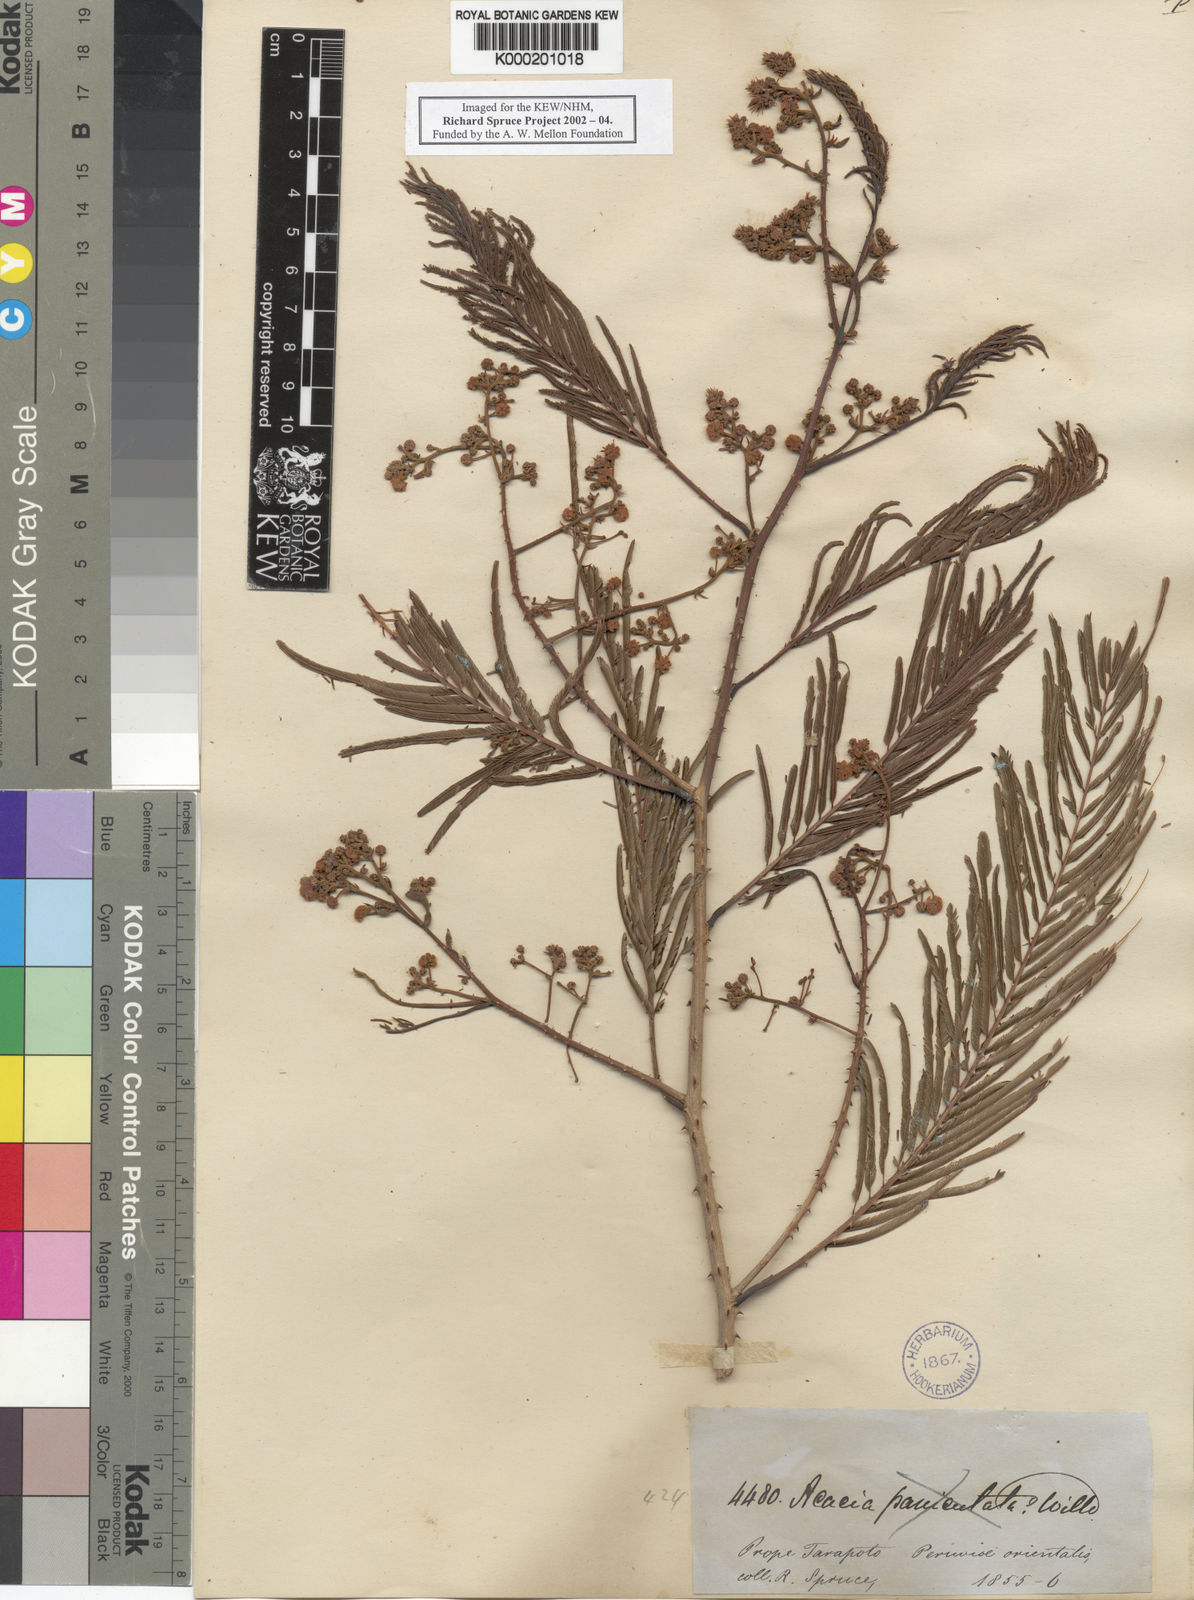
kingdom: Plantae
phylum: Tracheophyta
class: Magnoliopsida
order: Fabales
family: Fabaceae
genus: Senegalia
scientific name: Senegalia paniculata
